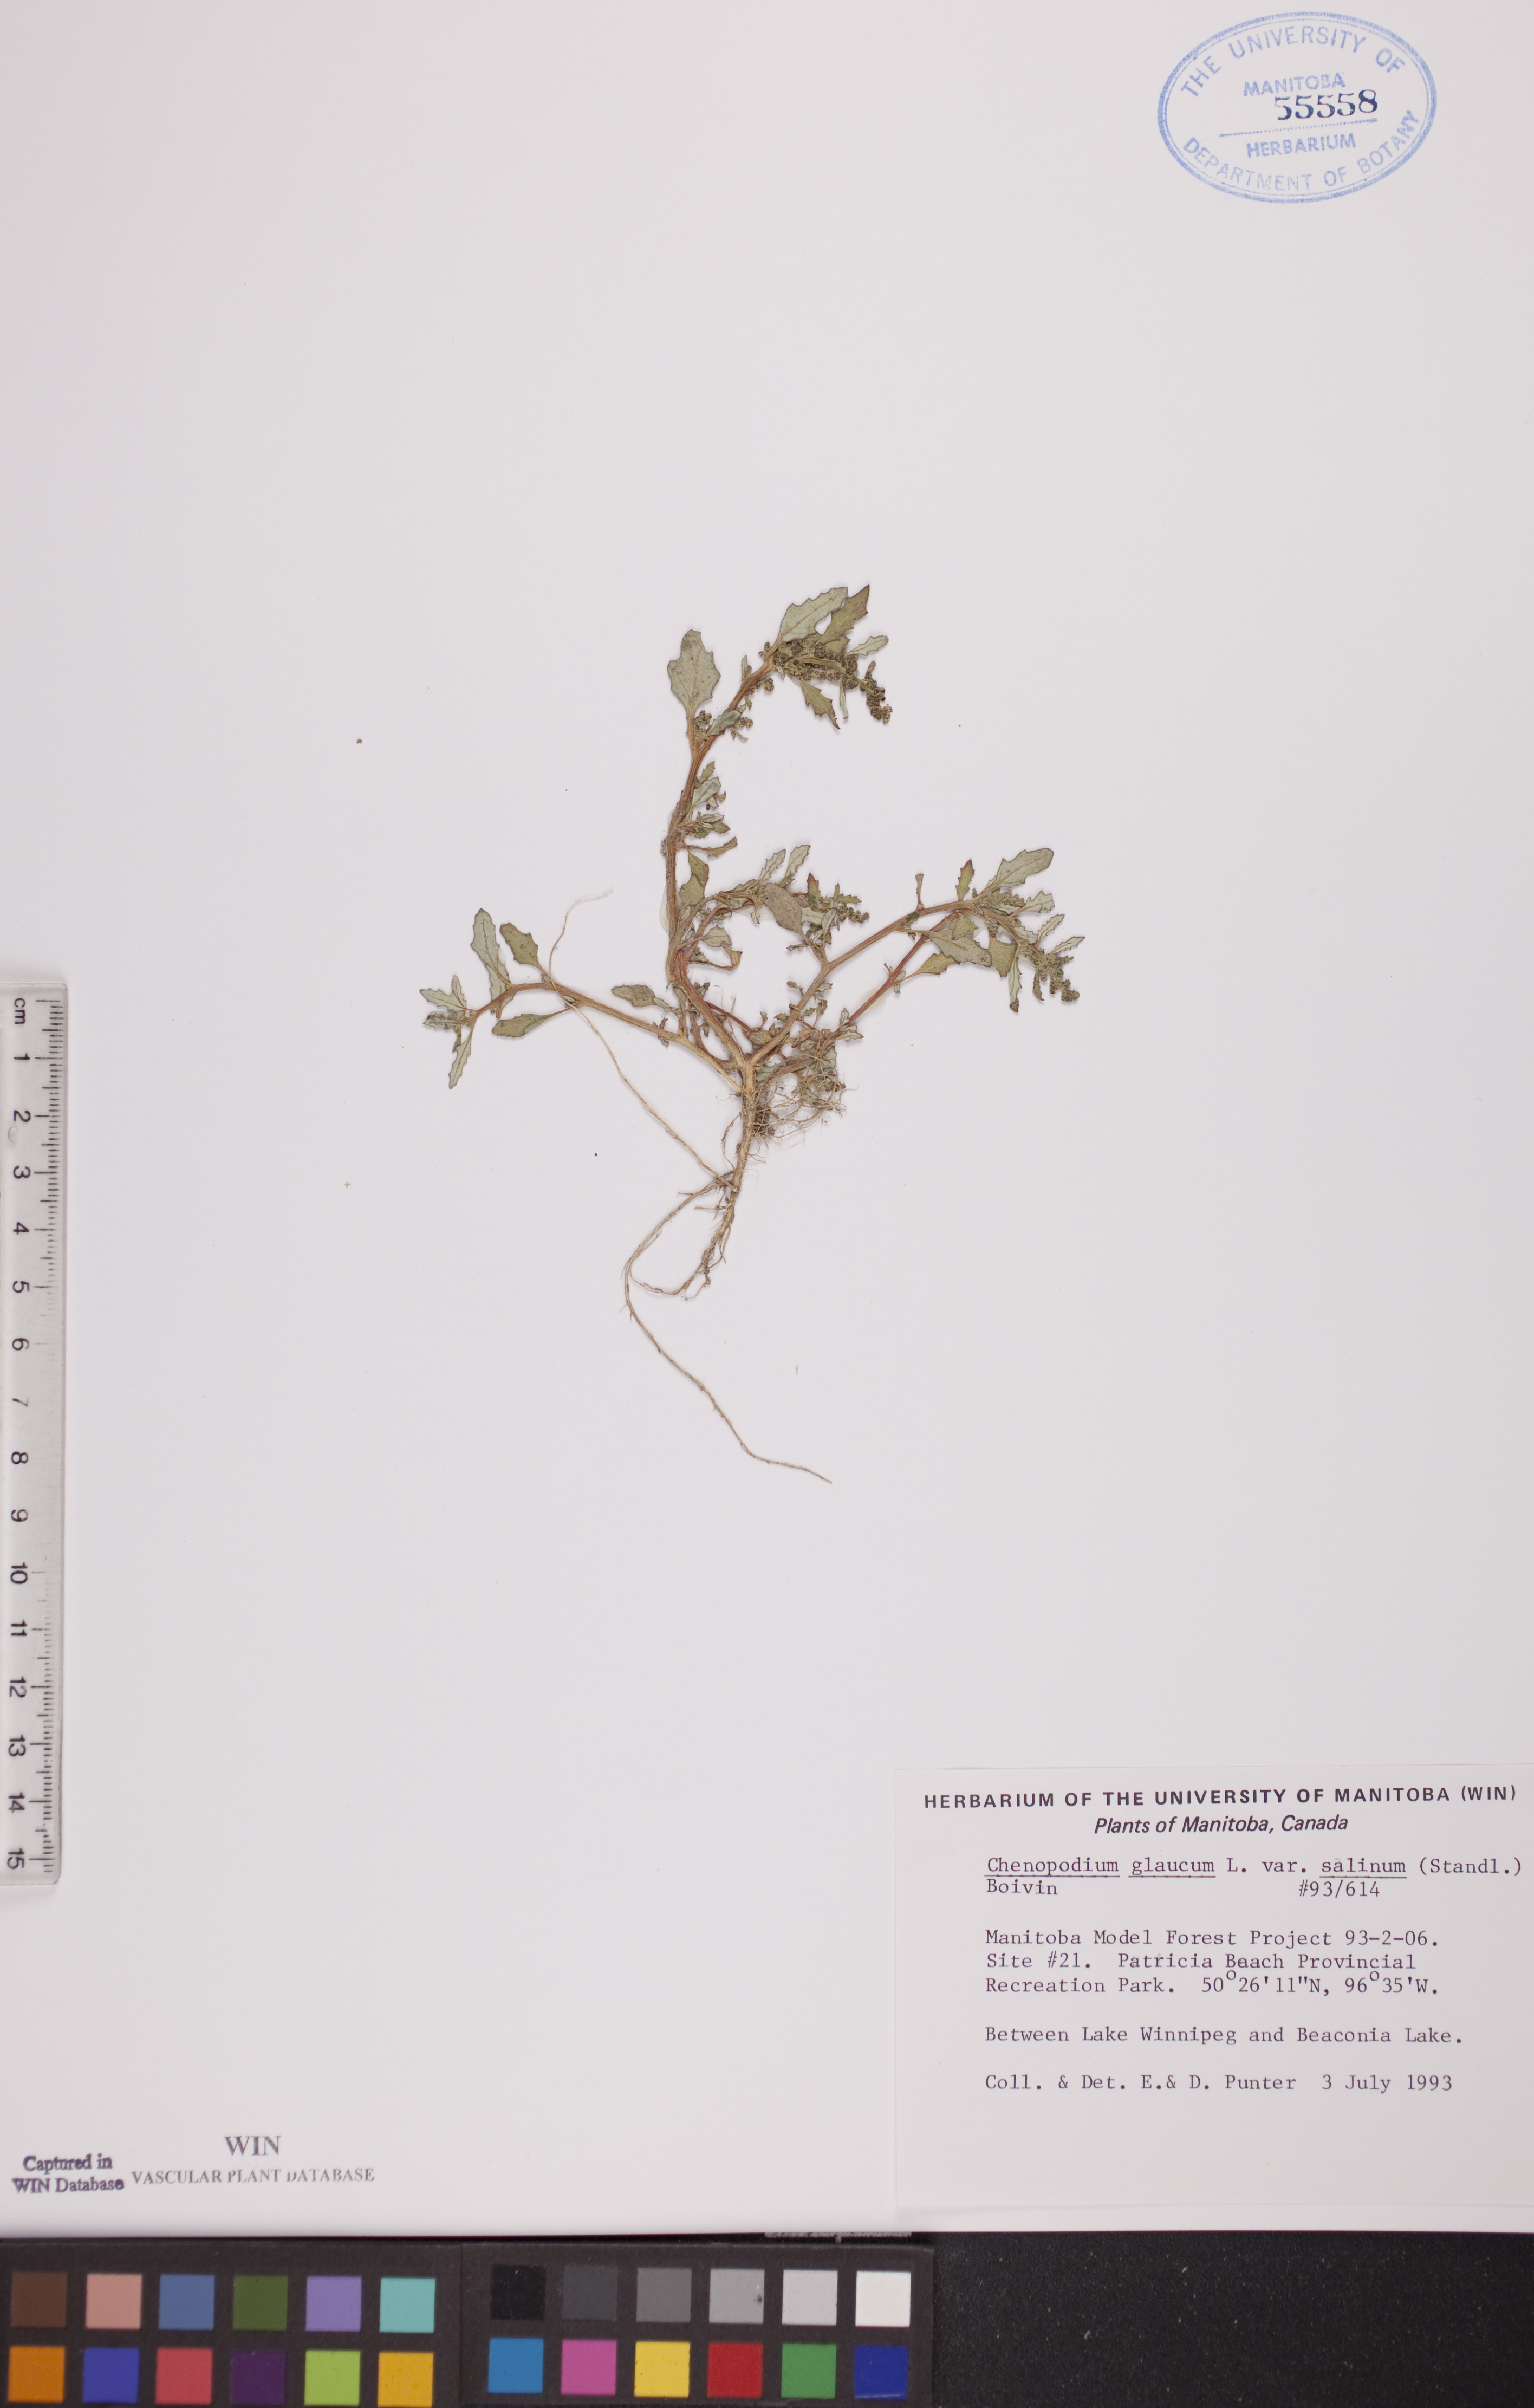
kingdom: Plantae
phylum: Tracheophyta
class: Magnoliopsida
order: Caryophyllales
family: Amaranthaceae
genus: Oxybasis
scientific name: Oxybasis salina
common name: Rocky mountain goosefoot
